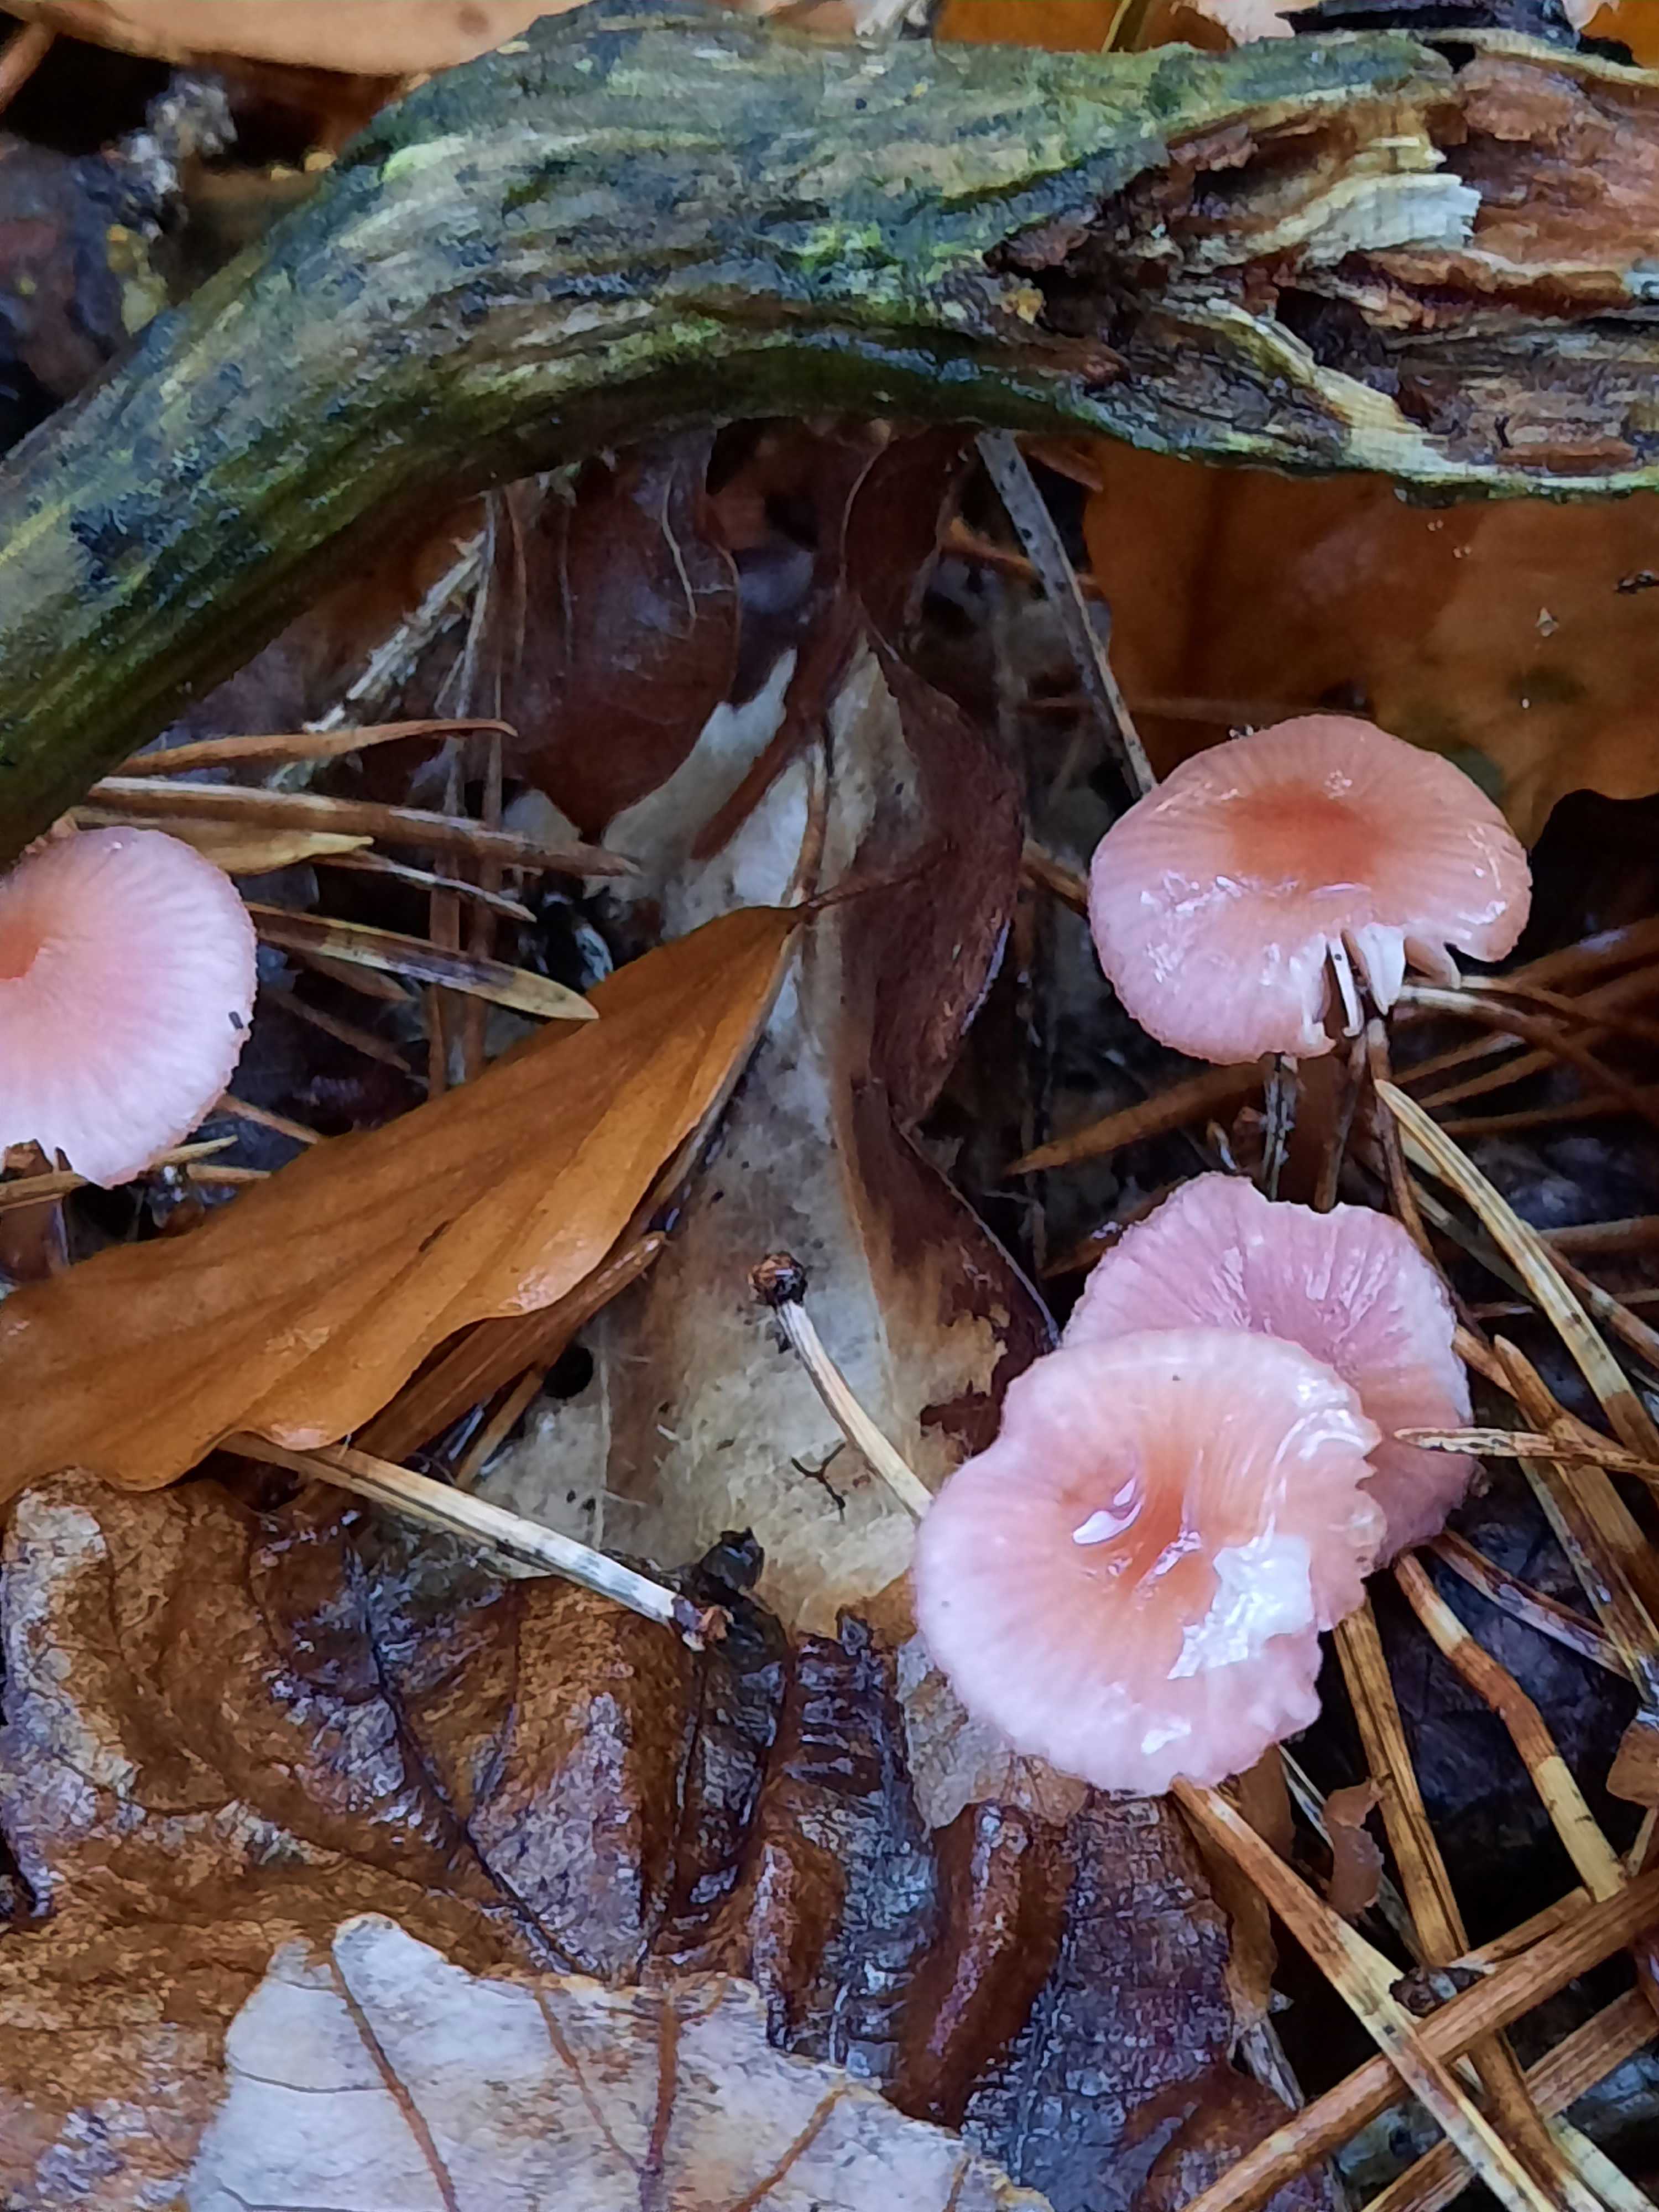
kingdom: Fungi
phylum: Basidiomycota
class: Agaricomycetes
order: Agaricales
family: Mycenaceae
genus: Mycena
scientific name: Mycena rosella
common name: rosenrød huesvamp
